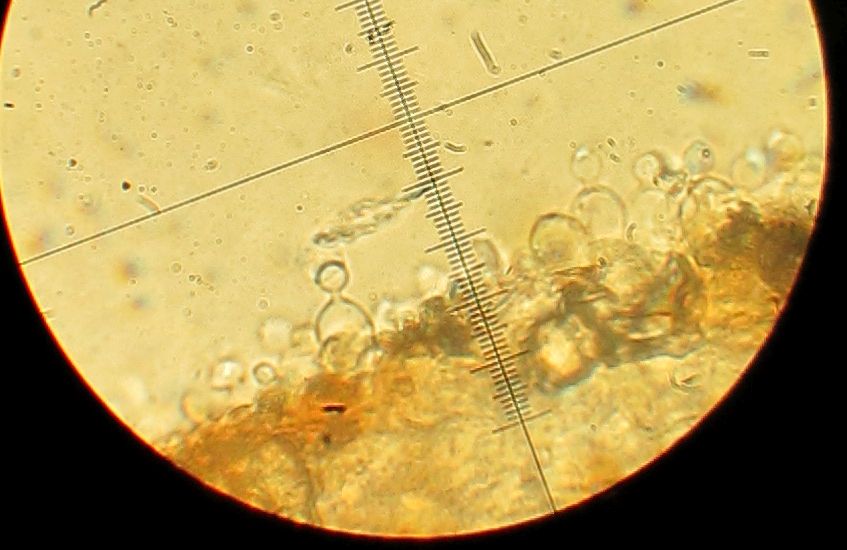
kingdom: Fungi
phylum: Basidiomycota
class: Agaricomycetes
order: Agaricales
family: Bolbitiaceae
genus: Conocybe
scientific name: Conocybe
